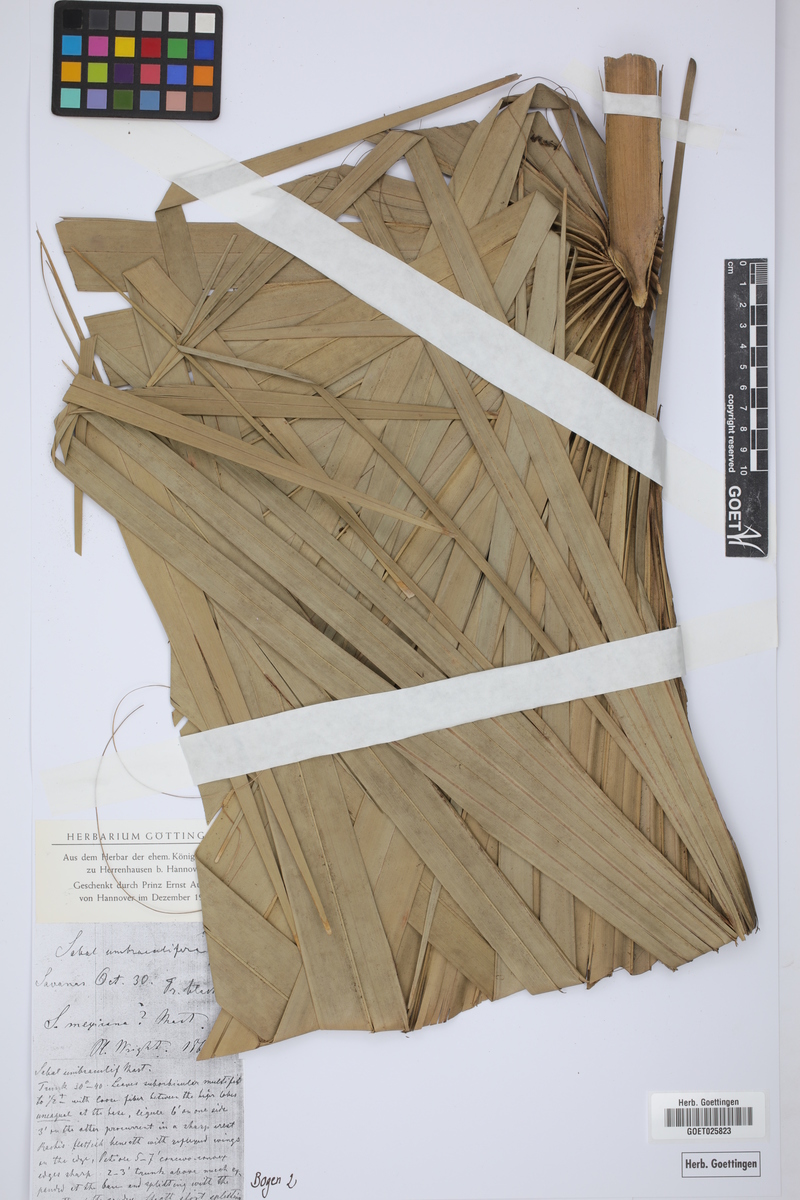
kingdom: Plantae
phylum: Tracheophyta
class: Liliopsida
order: Arecales
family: Arecaceae
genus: Sabal
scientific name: Sabal mexicana
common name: Texas palmetto
